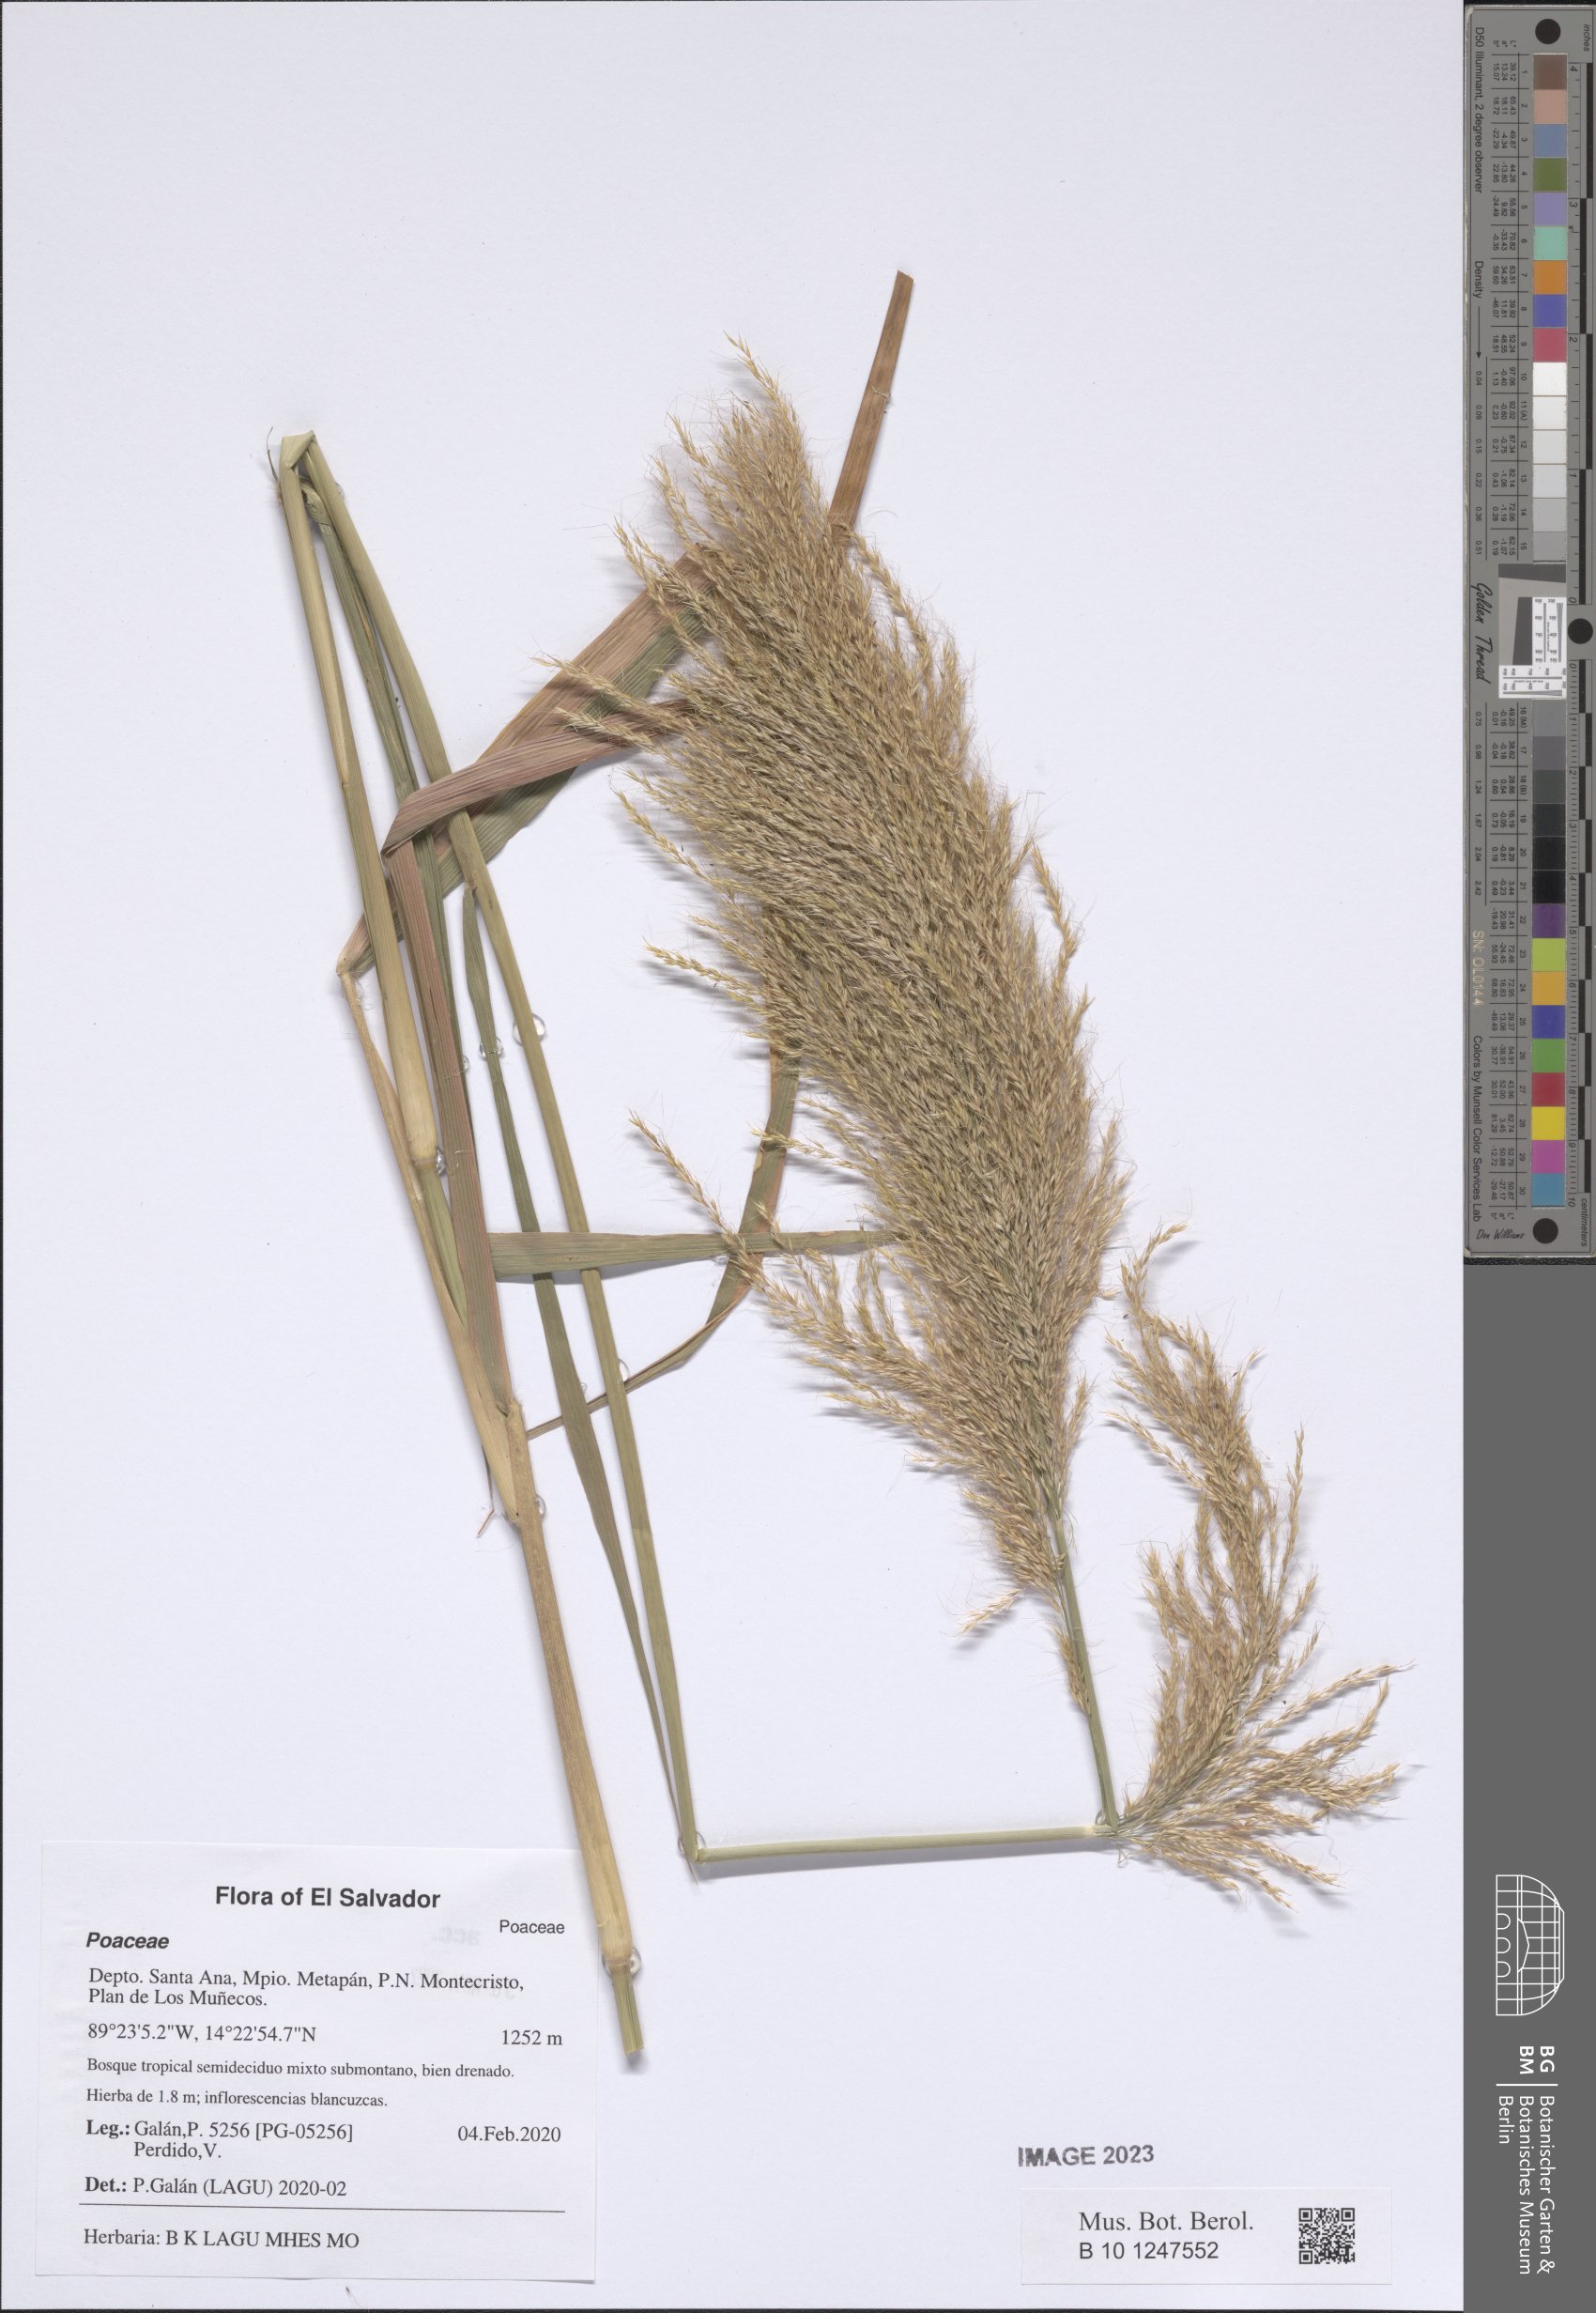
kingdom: Plantae
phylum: Tracheophyta
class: Liliopsida
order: Poales
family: Poaceae
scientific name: Poaceae
